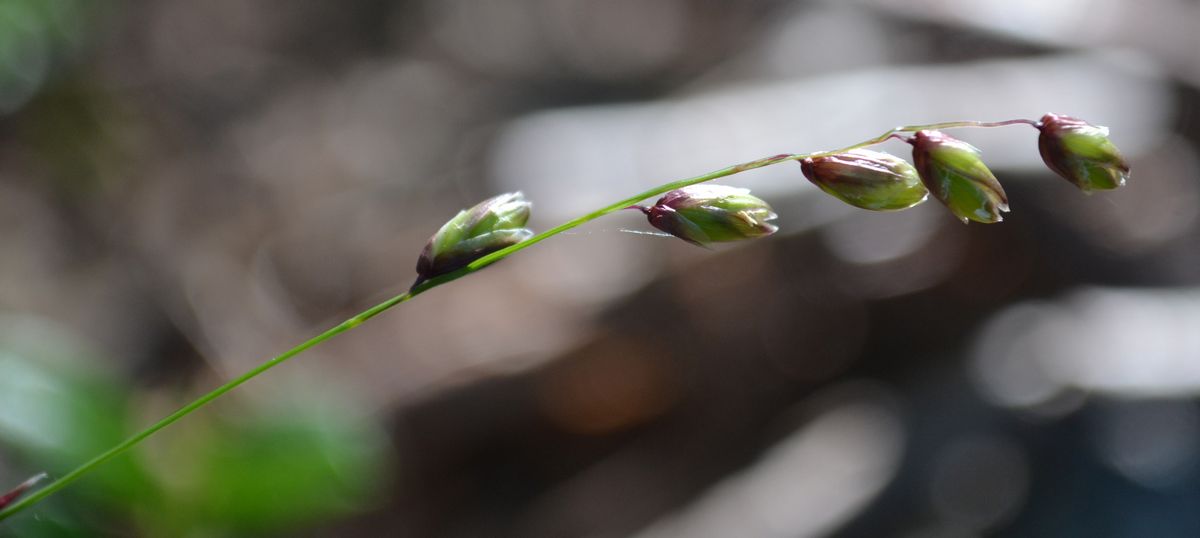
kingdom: Plantae
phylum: Tracheophyta
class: Liliopsida
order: Poales
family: Poaceae
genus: Melica
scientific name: Melica nutans
